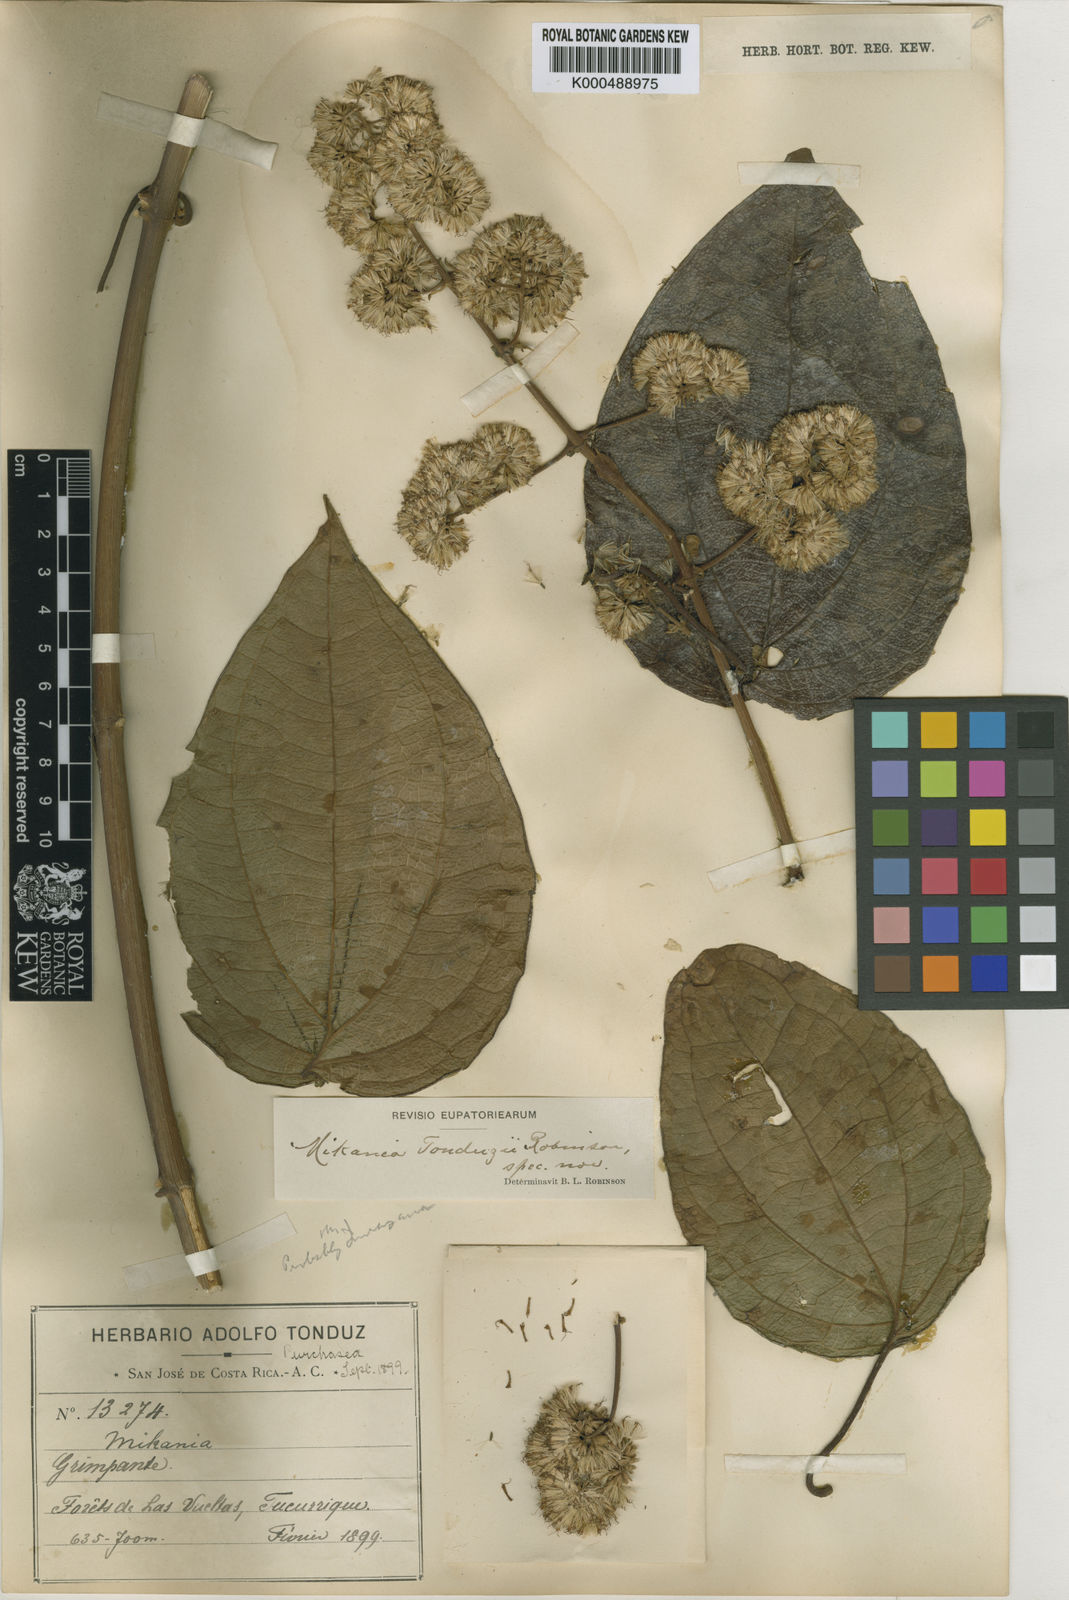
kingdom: Plantae
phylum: Tracheophyta
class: Magnoliopsida
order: Asterales
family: Asteraceae
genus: Mikania
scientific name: Mikania tonduzii
